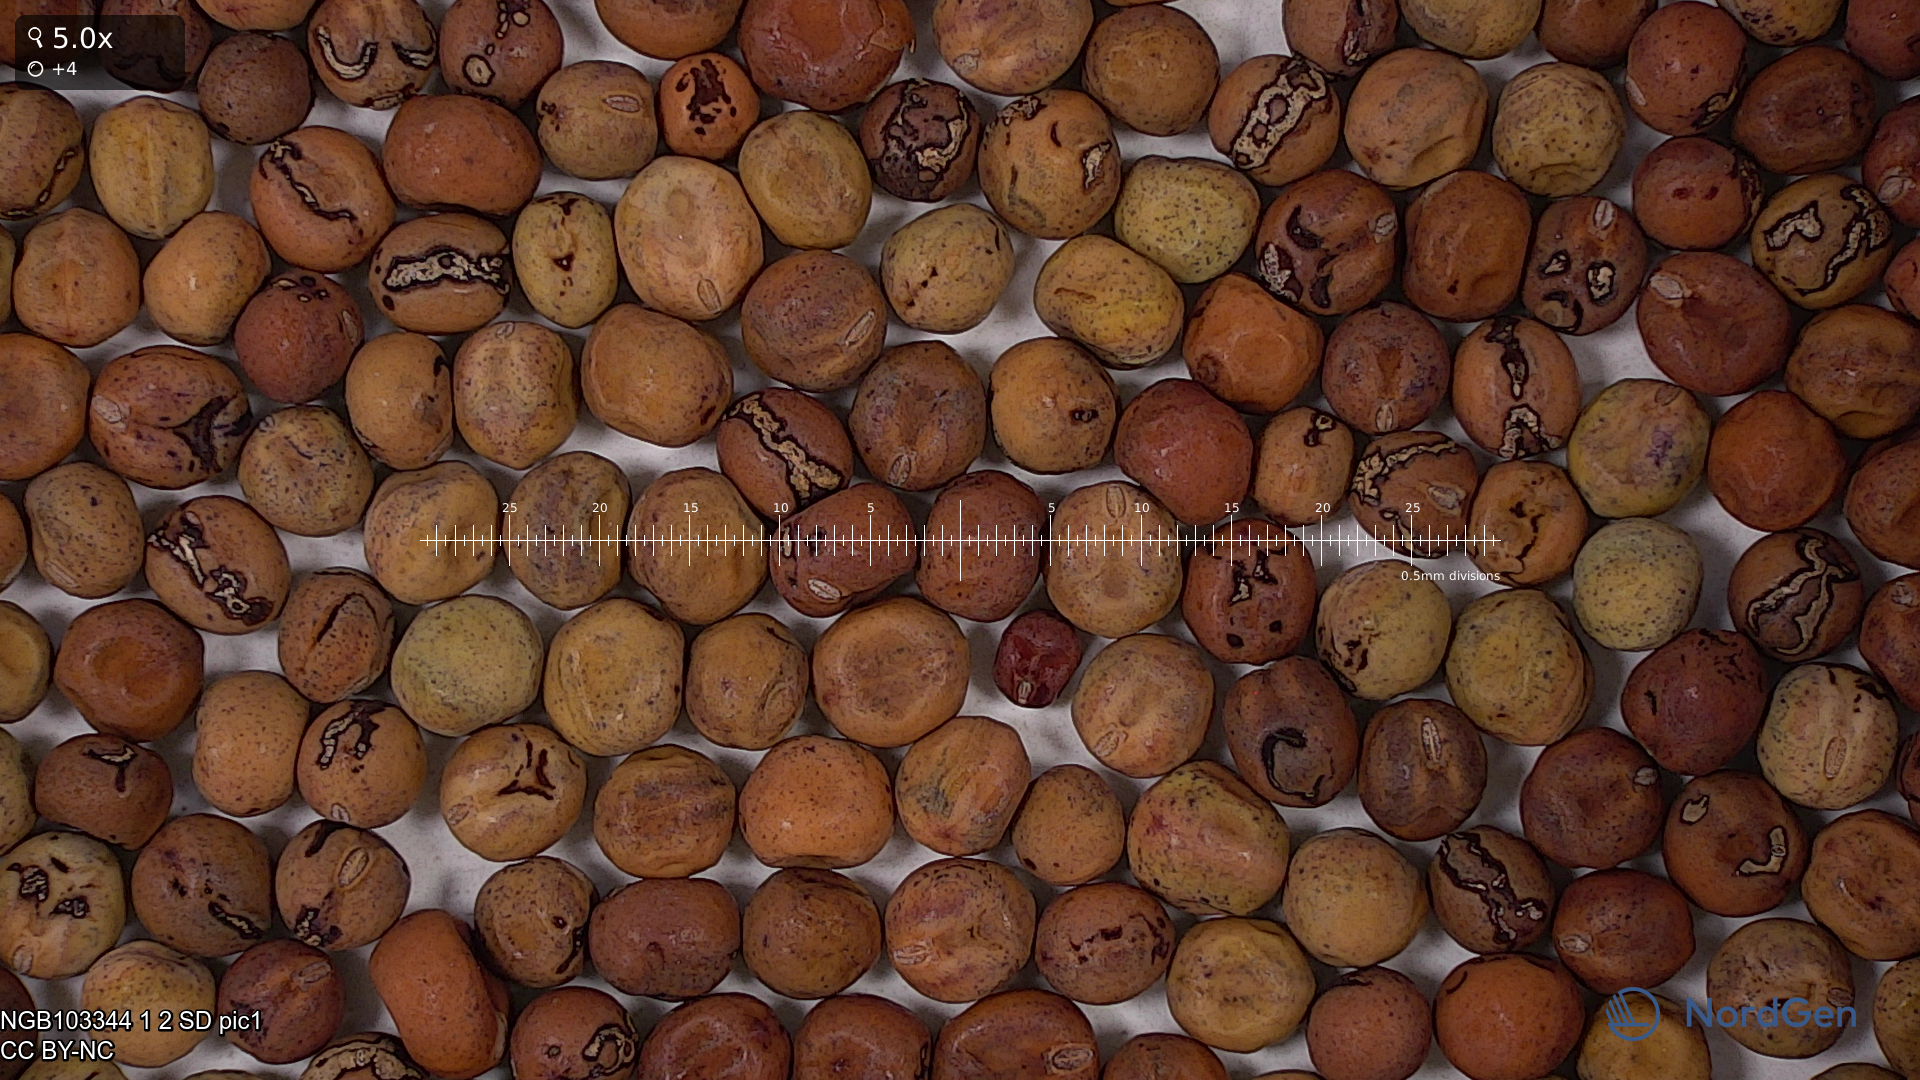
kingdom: Plantae
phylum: Tracheophyta
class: Magnoliopsida
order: Fabales
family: Fabaceae
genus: Lathyrus
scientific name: Lathyrus oleraceus
